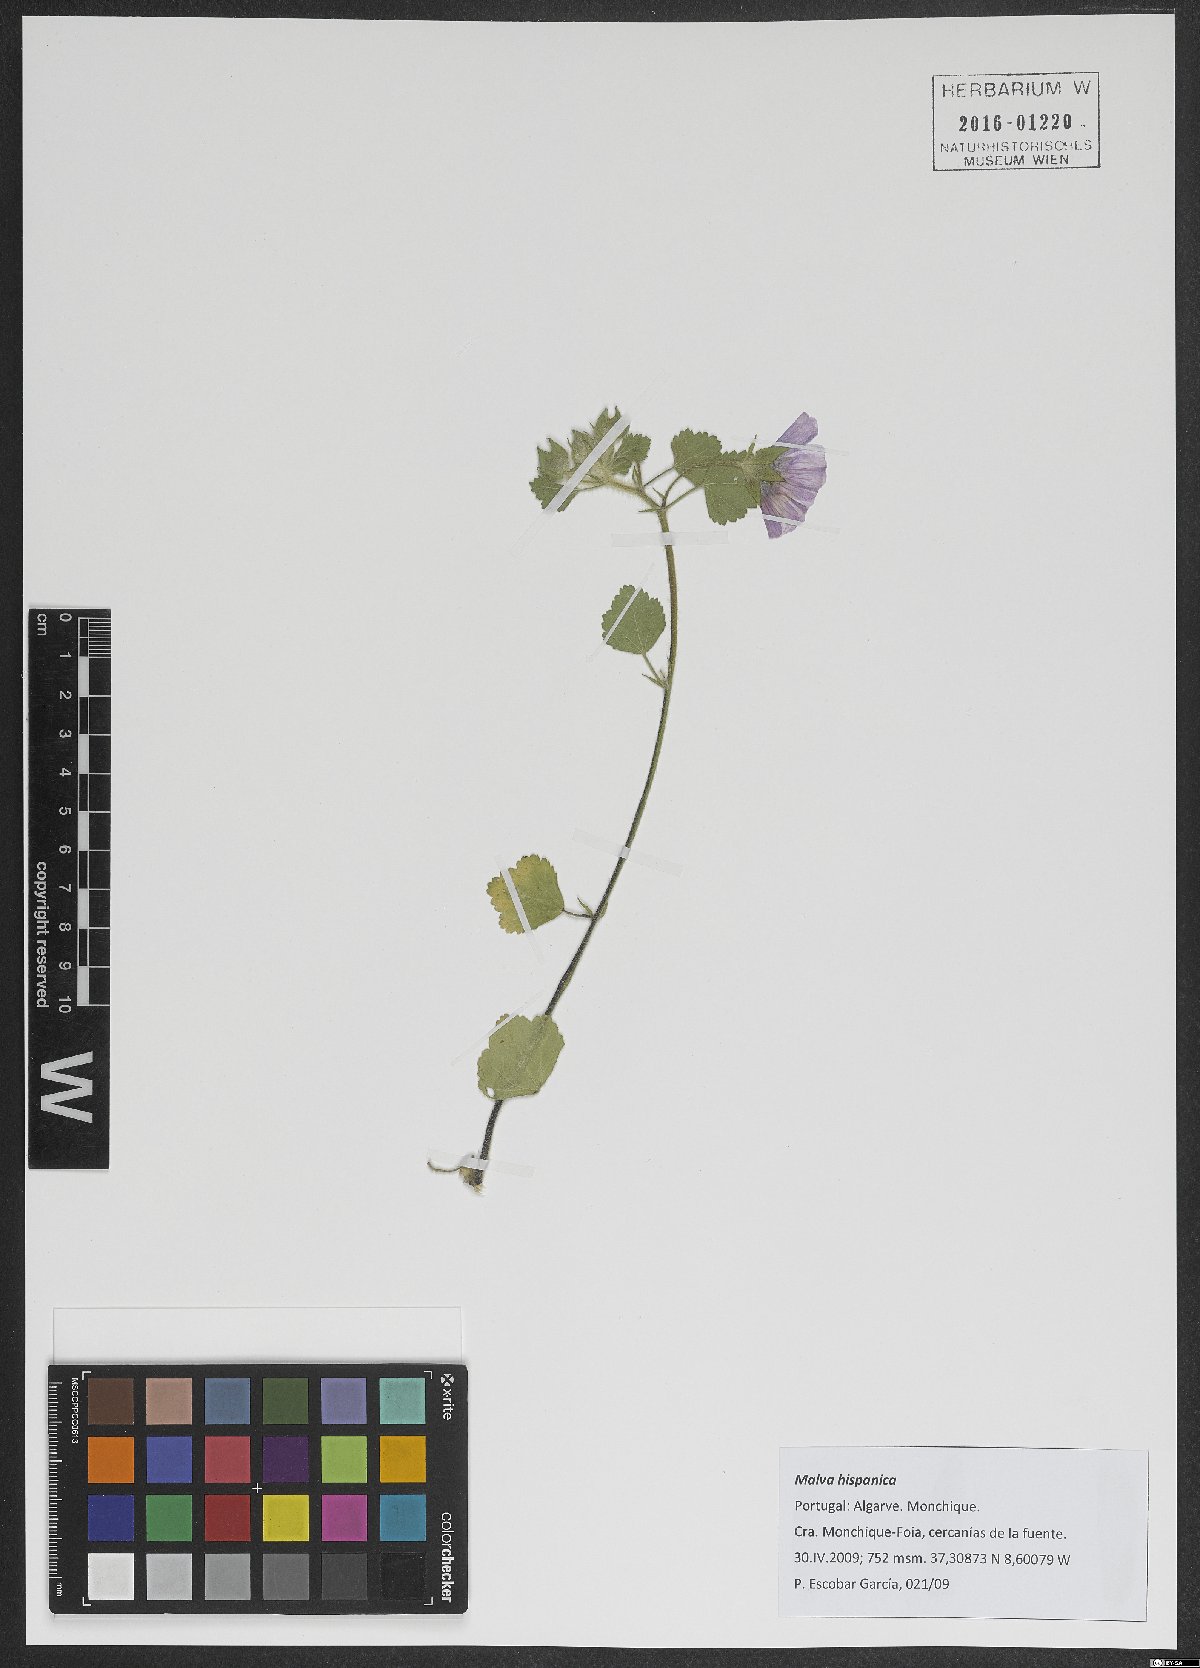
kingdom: Plantae
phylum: Tracheophyta
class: Magnoliopsida
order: Malvales
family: Malvaceae
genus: Malva
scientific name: Malva hispanica
